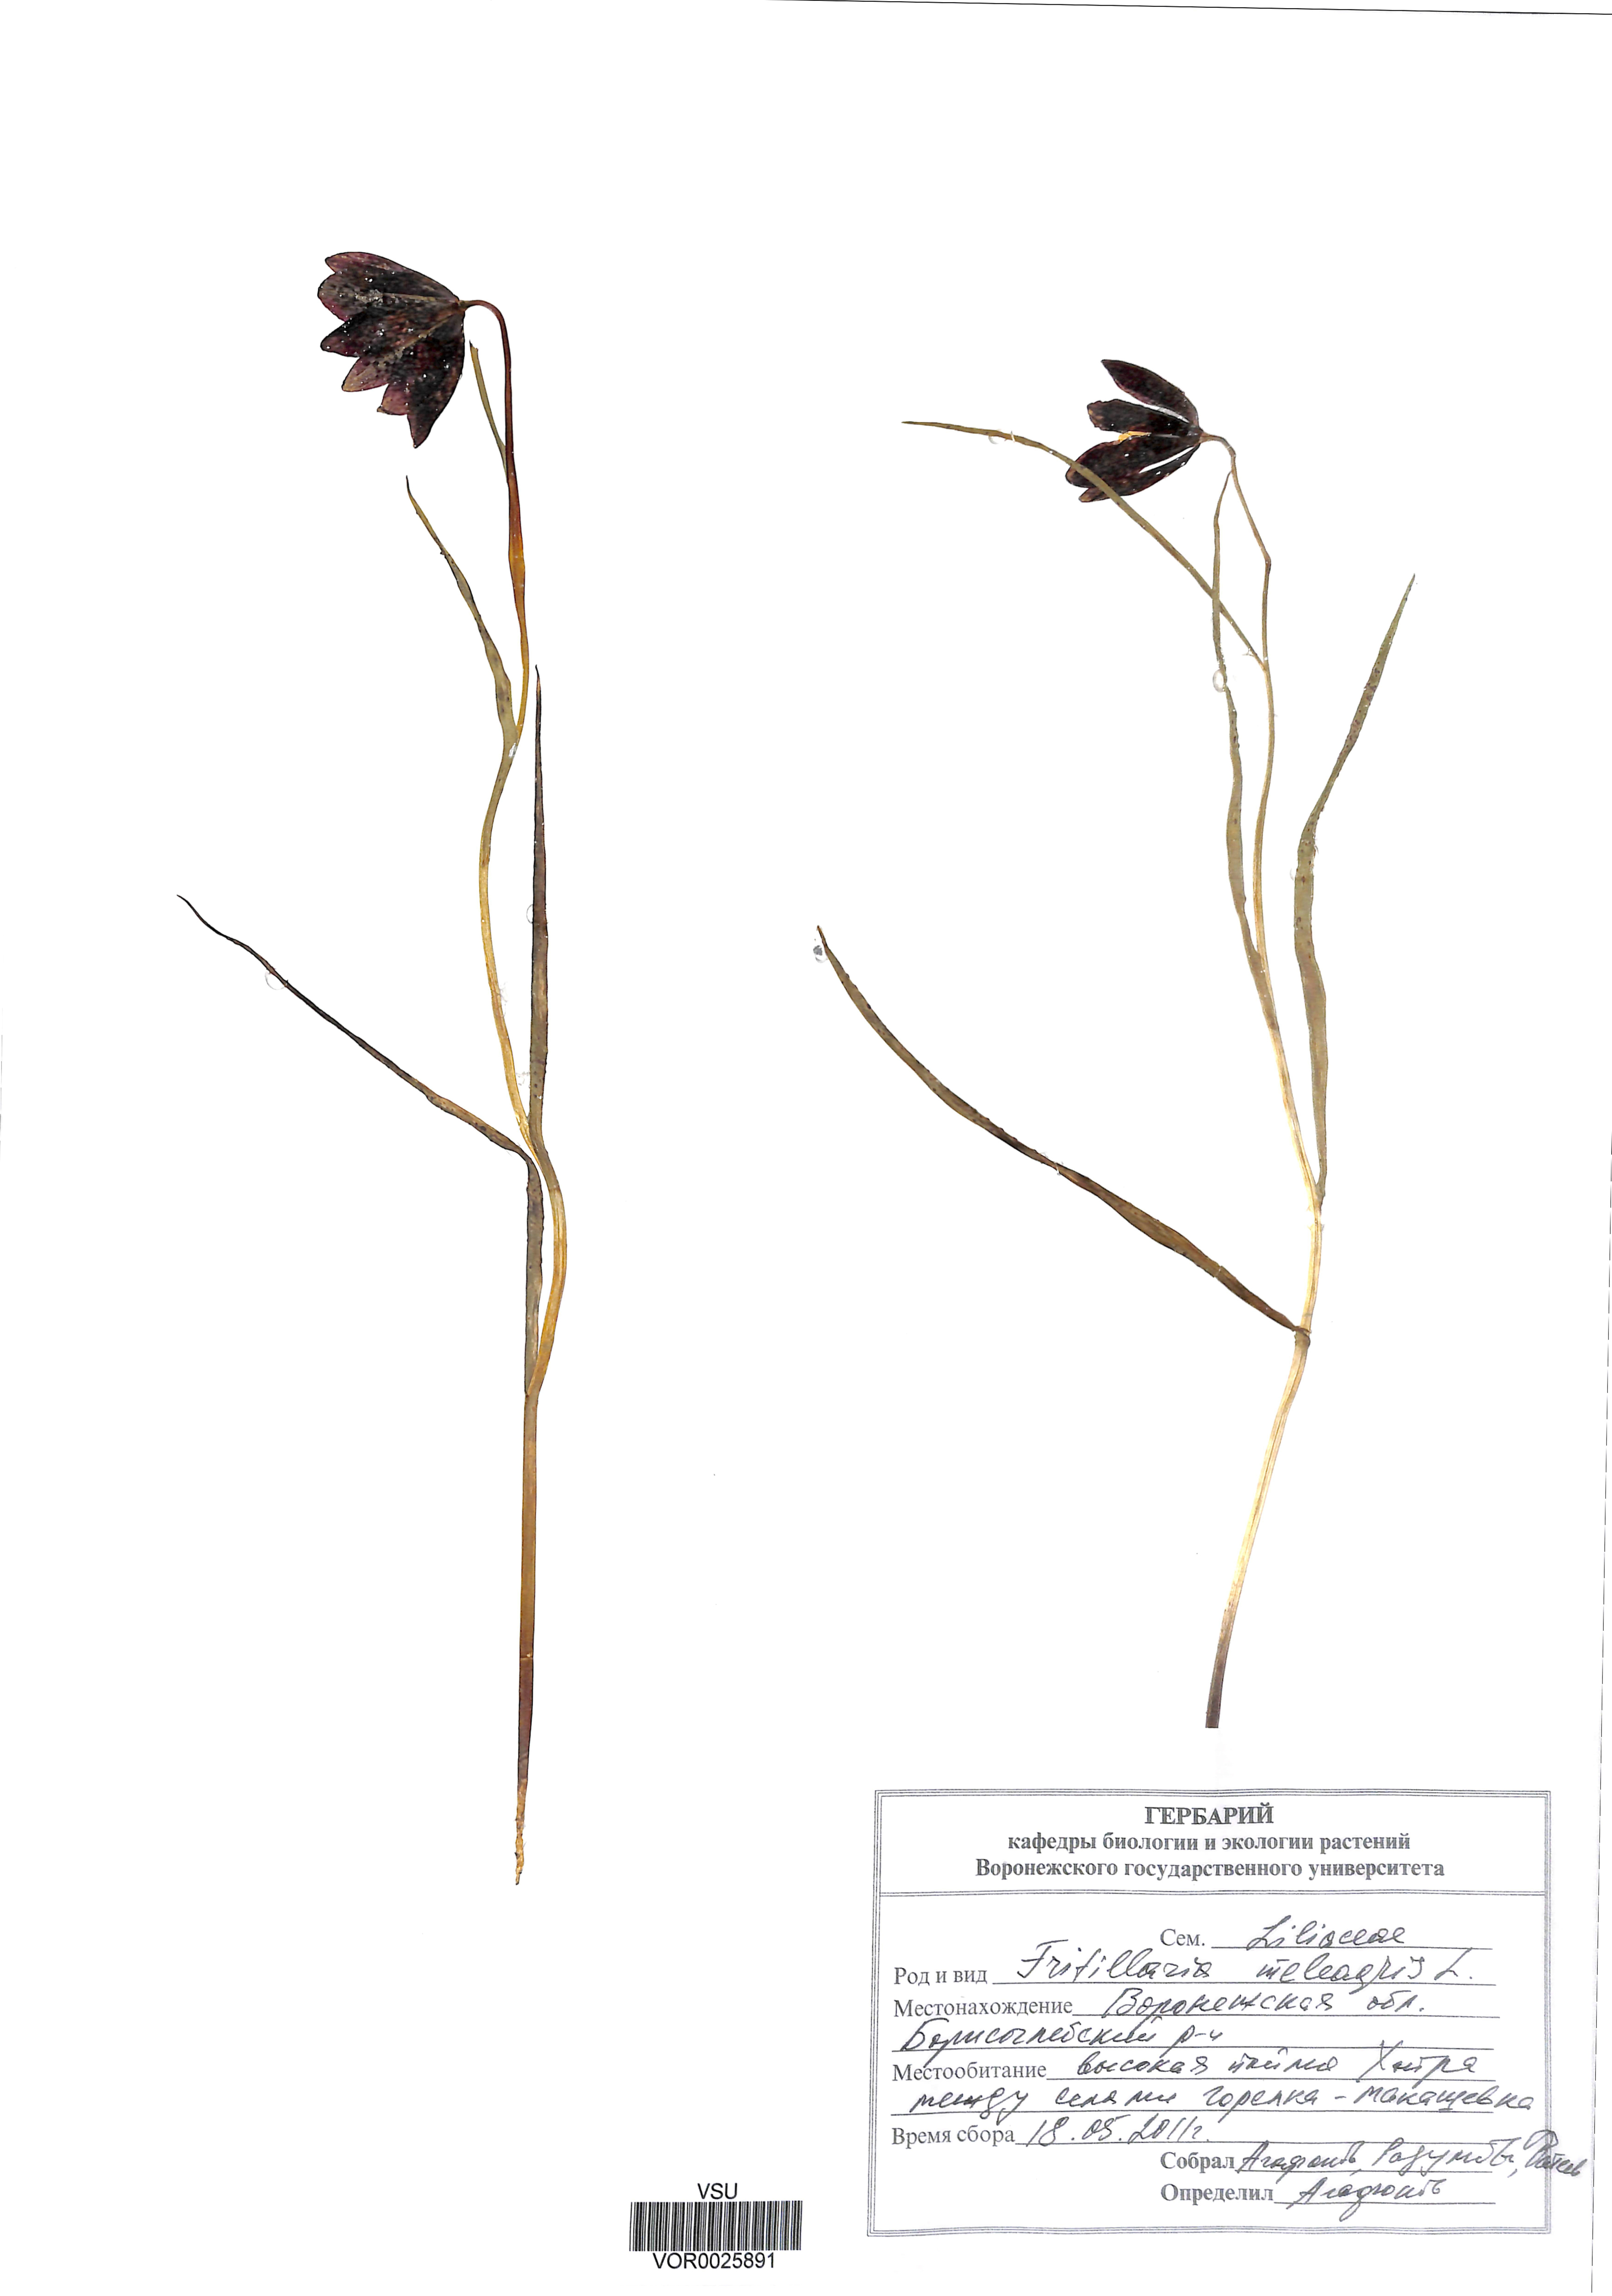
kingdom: Plantae
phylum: Tracheophyta
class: Liliopsida
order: Liliales
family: Liliaceae
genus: Fritillaria
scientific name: Fritillaria meleagris
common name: Fritillary
